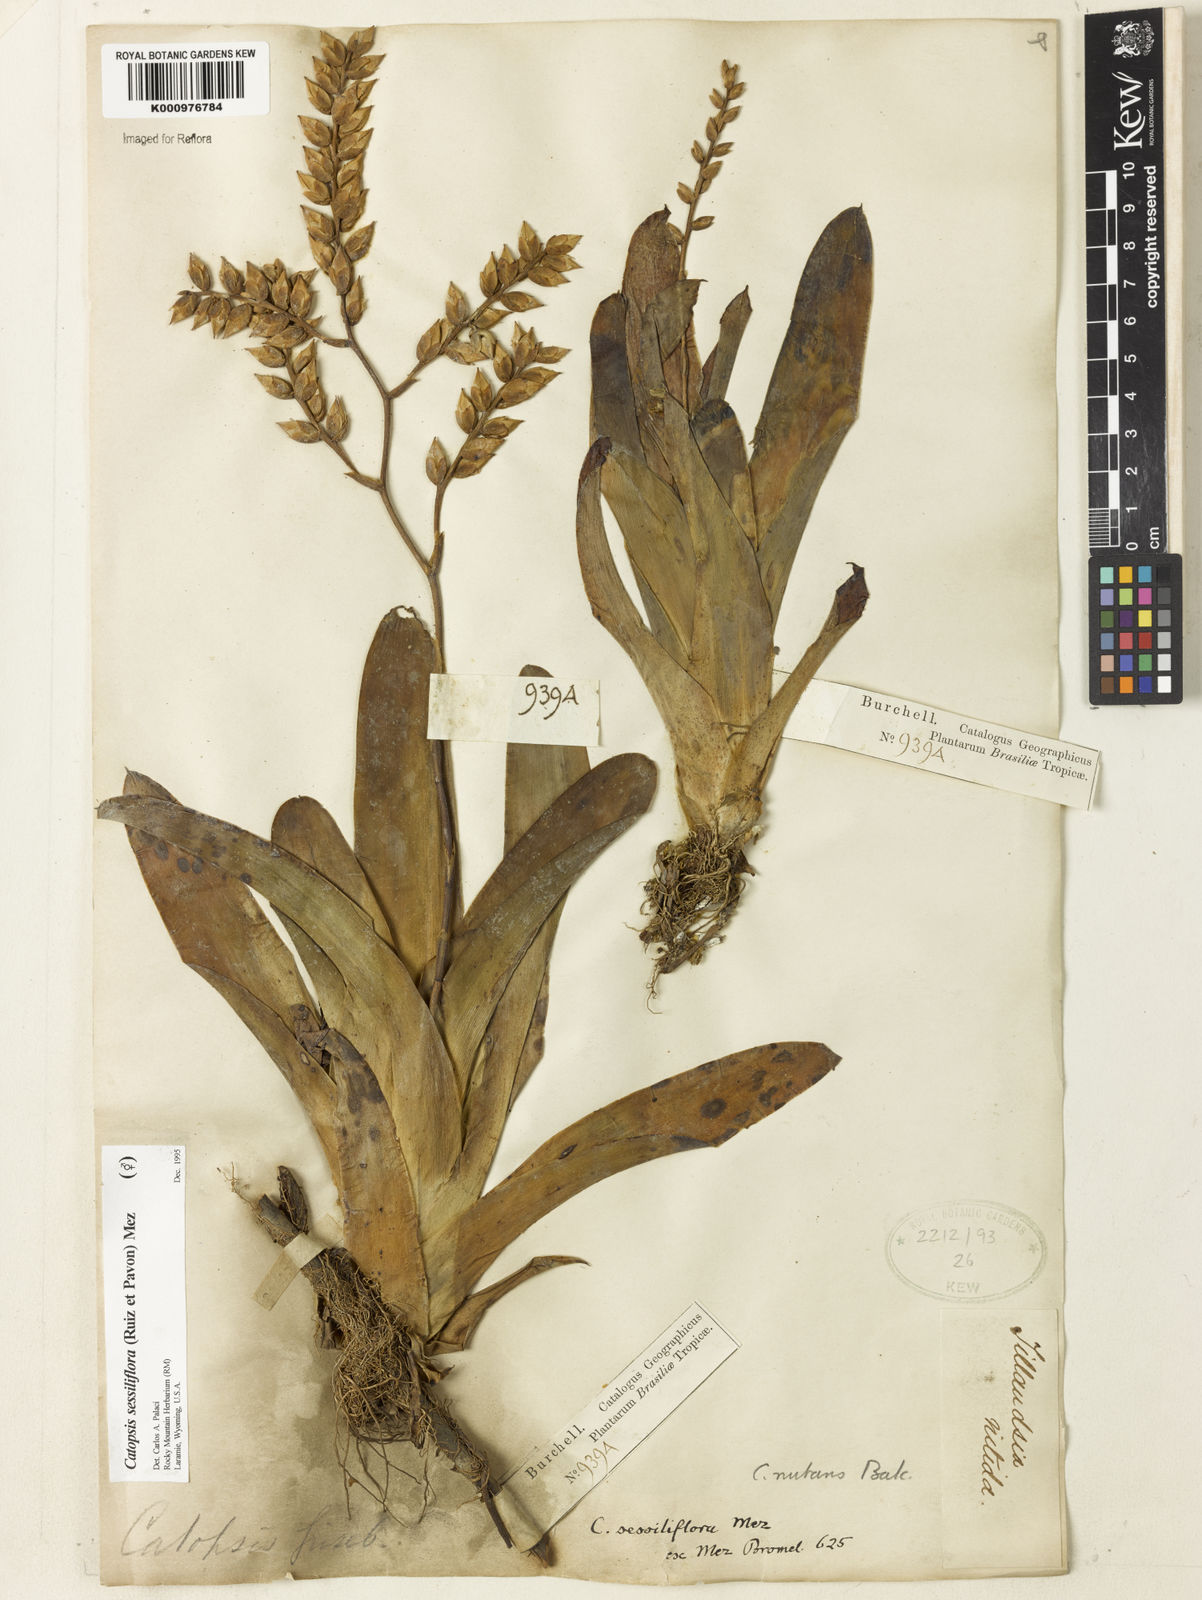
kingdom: Plantae
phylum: Tracheophyta
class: Liliopsida
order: Poales
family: Bromeliaceae
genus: Catopsis
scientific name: Catopsis
